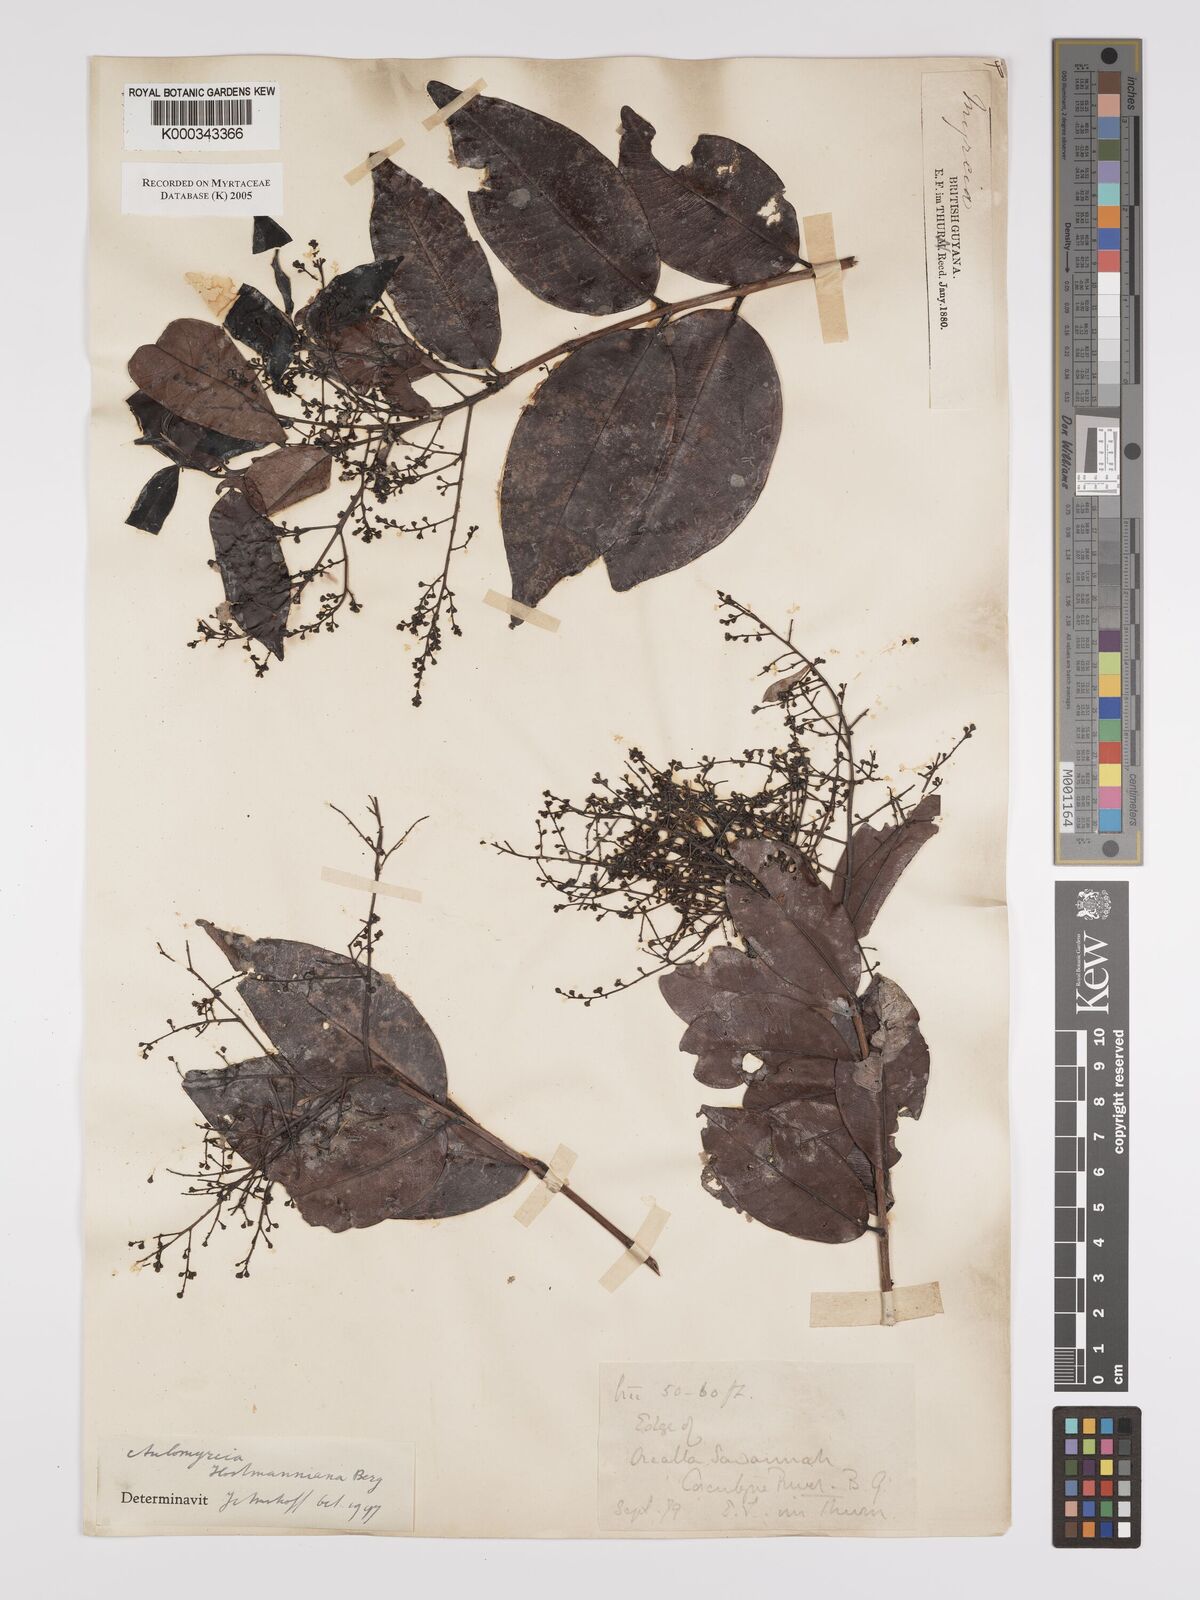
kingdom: Plantae
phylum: Tracheophyta
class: Magnoliopsida
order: Myrtales
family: Myrtaceae
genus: Myrcia
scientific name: Myrcia amazonica
